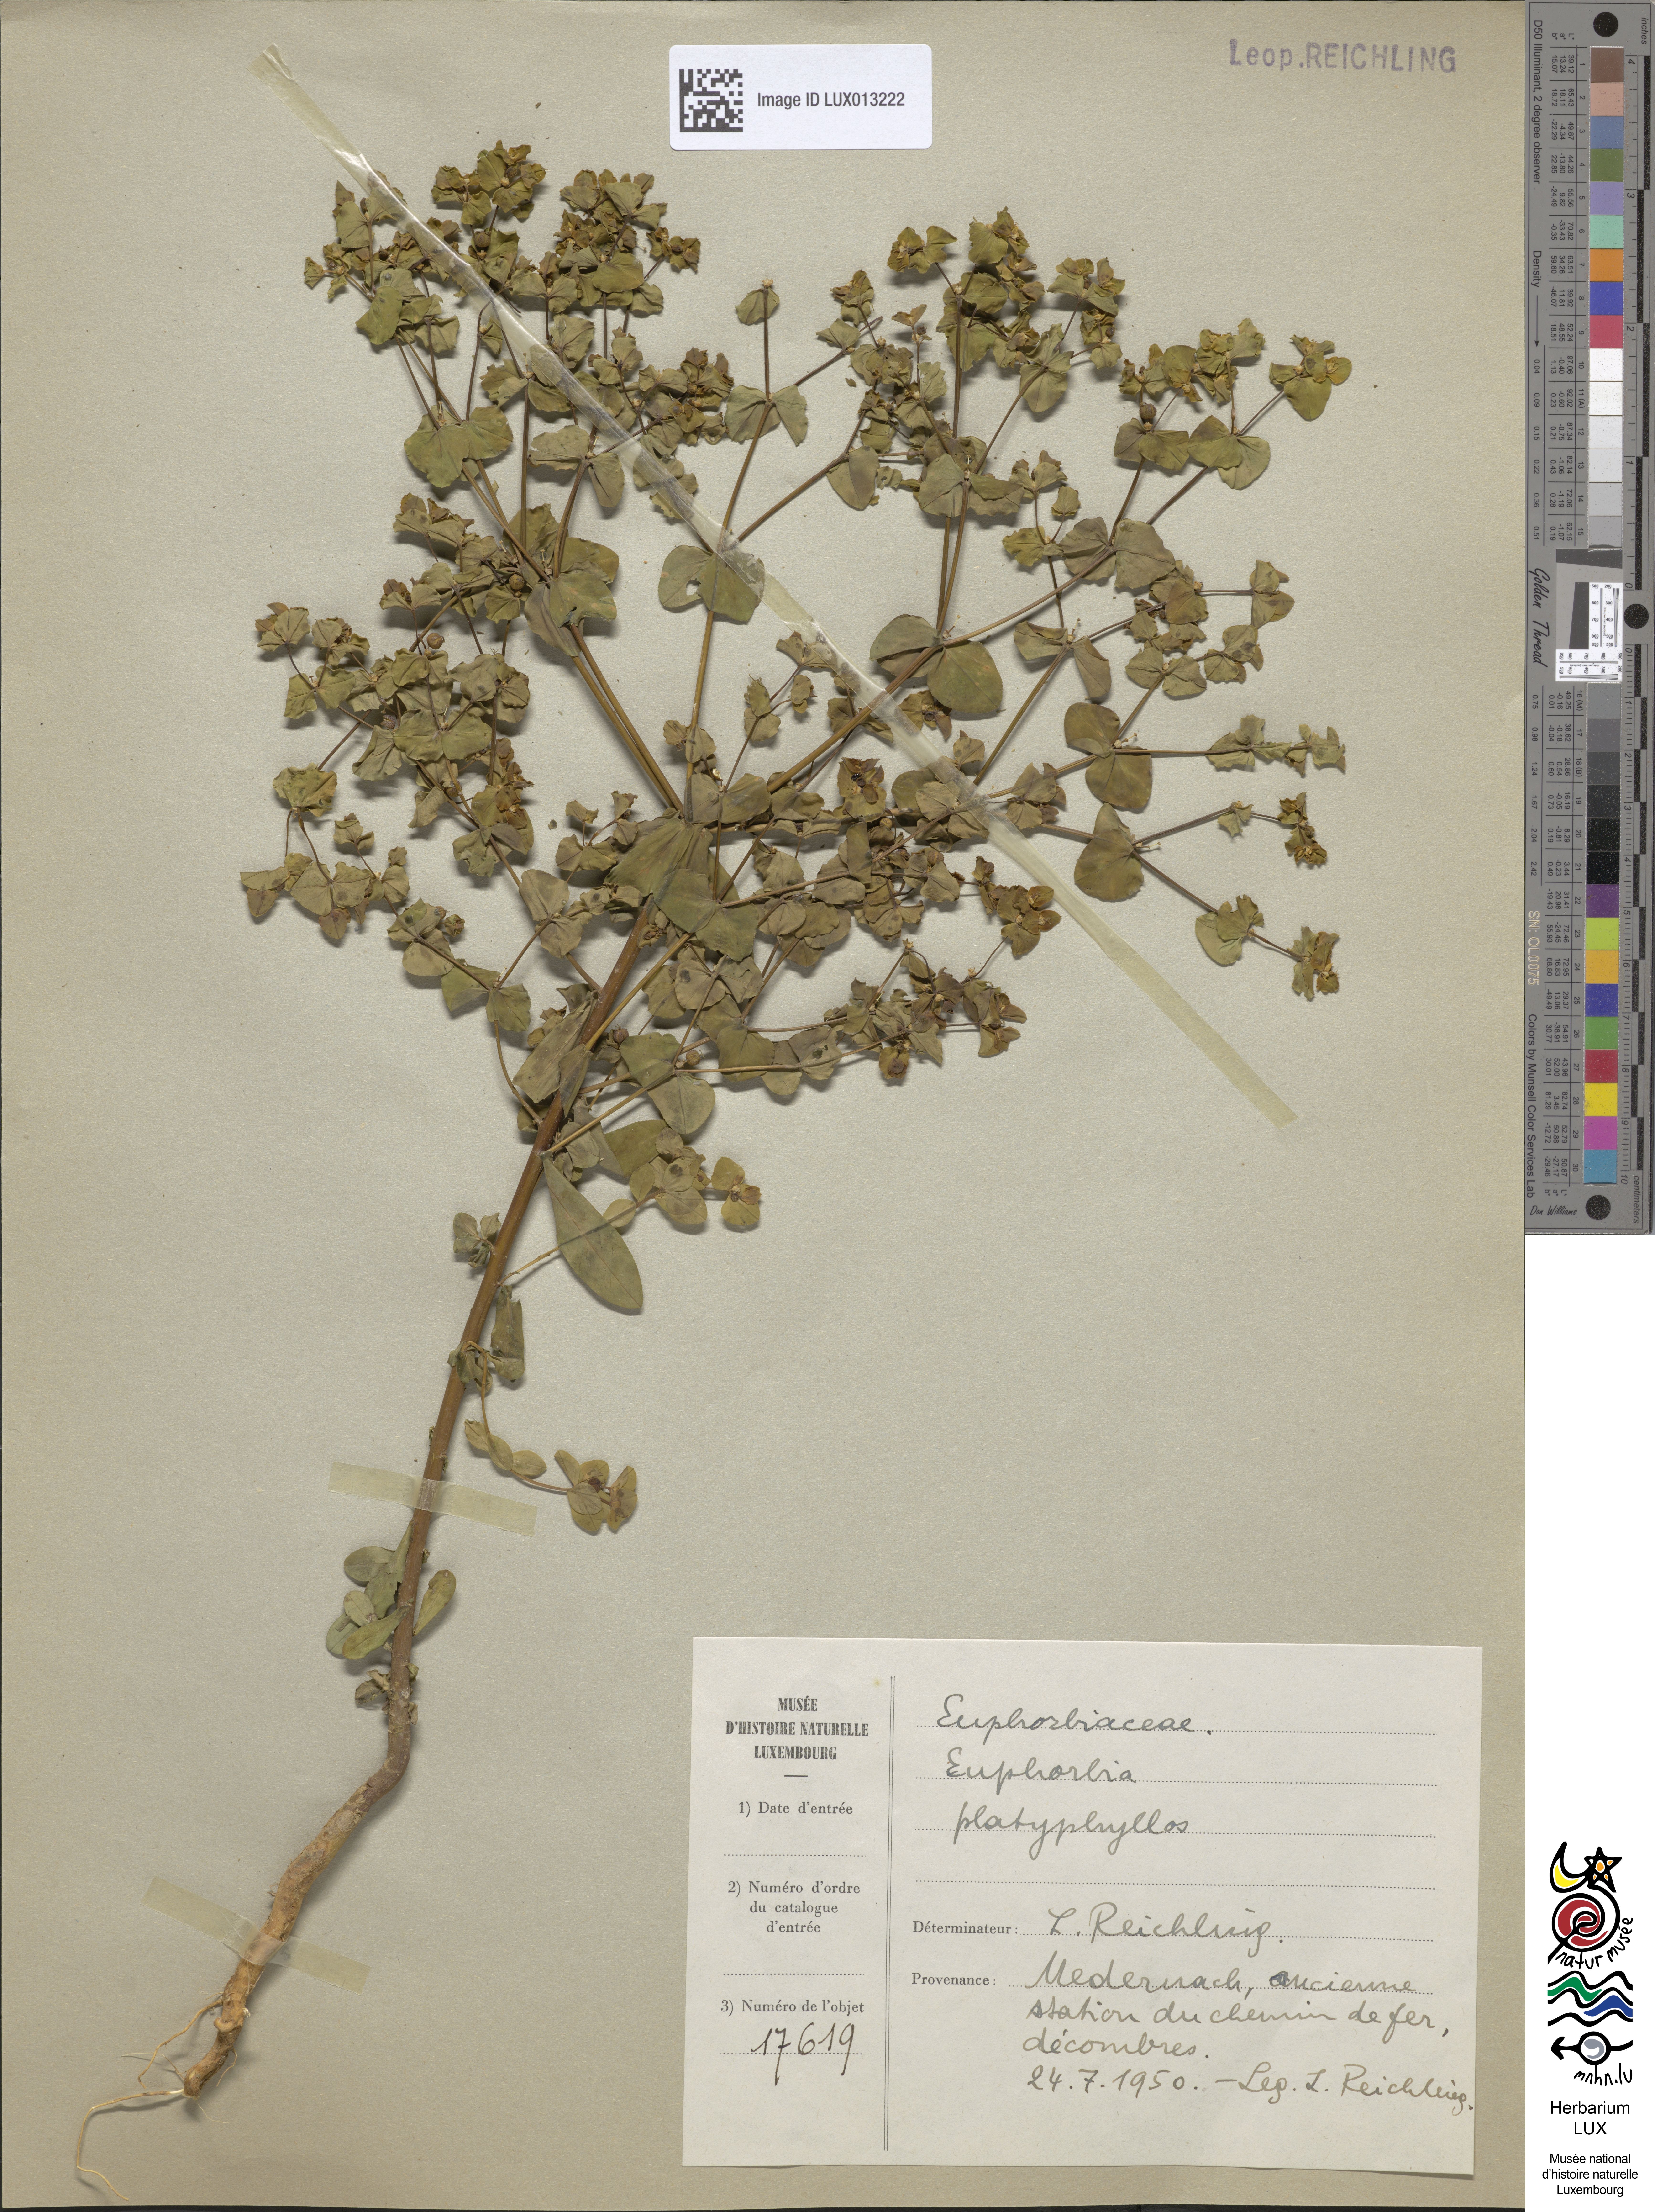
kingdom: Plantae
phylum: Tracheophyta
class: Magnoliopsida
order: Malpighiales
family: Euphorbiaceae
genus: Euphorbia
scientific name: Euphorbia platyphyllos
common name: Broad-leaved spurge
